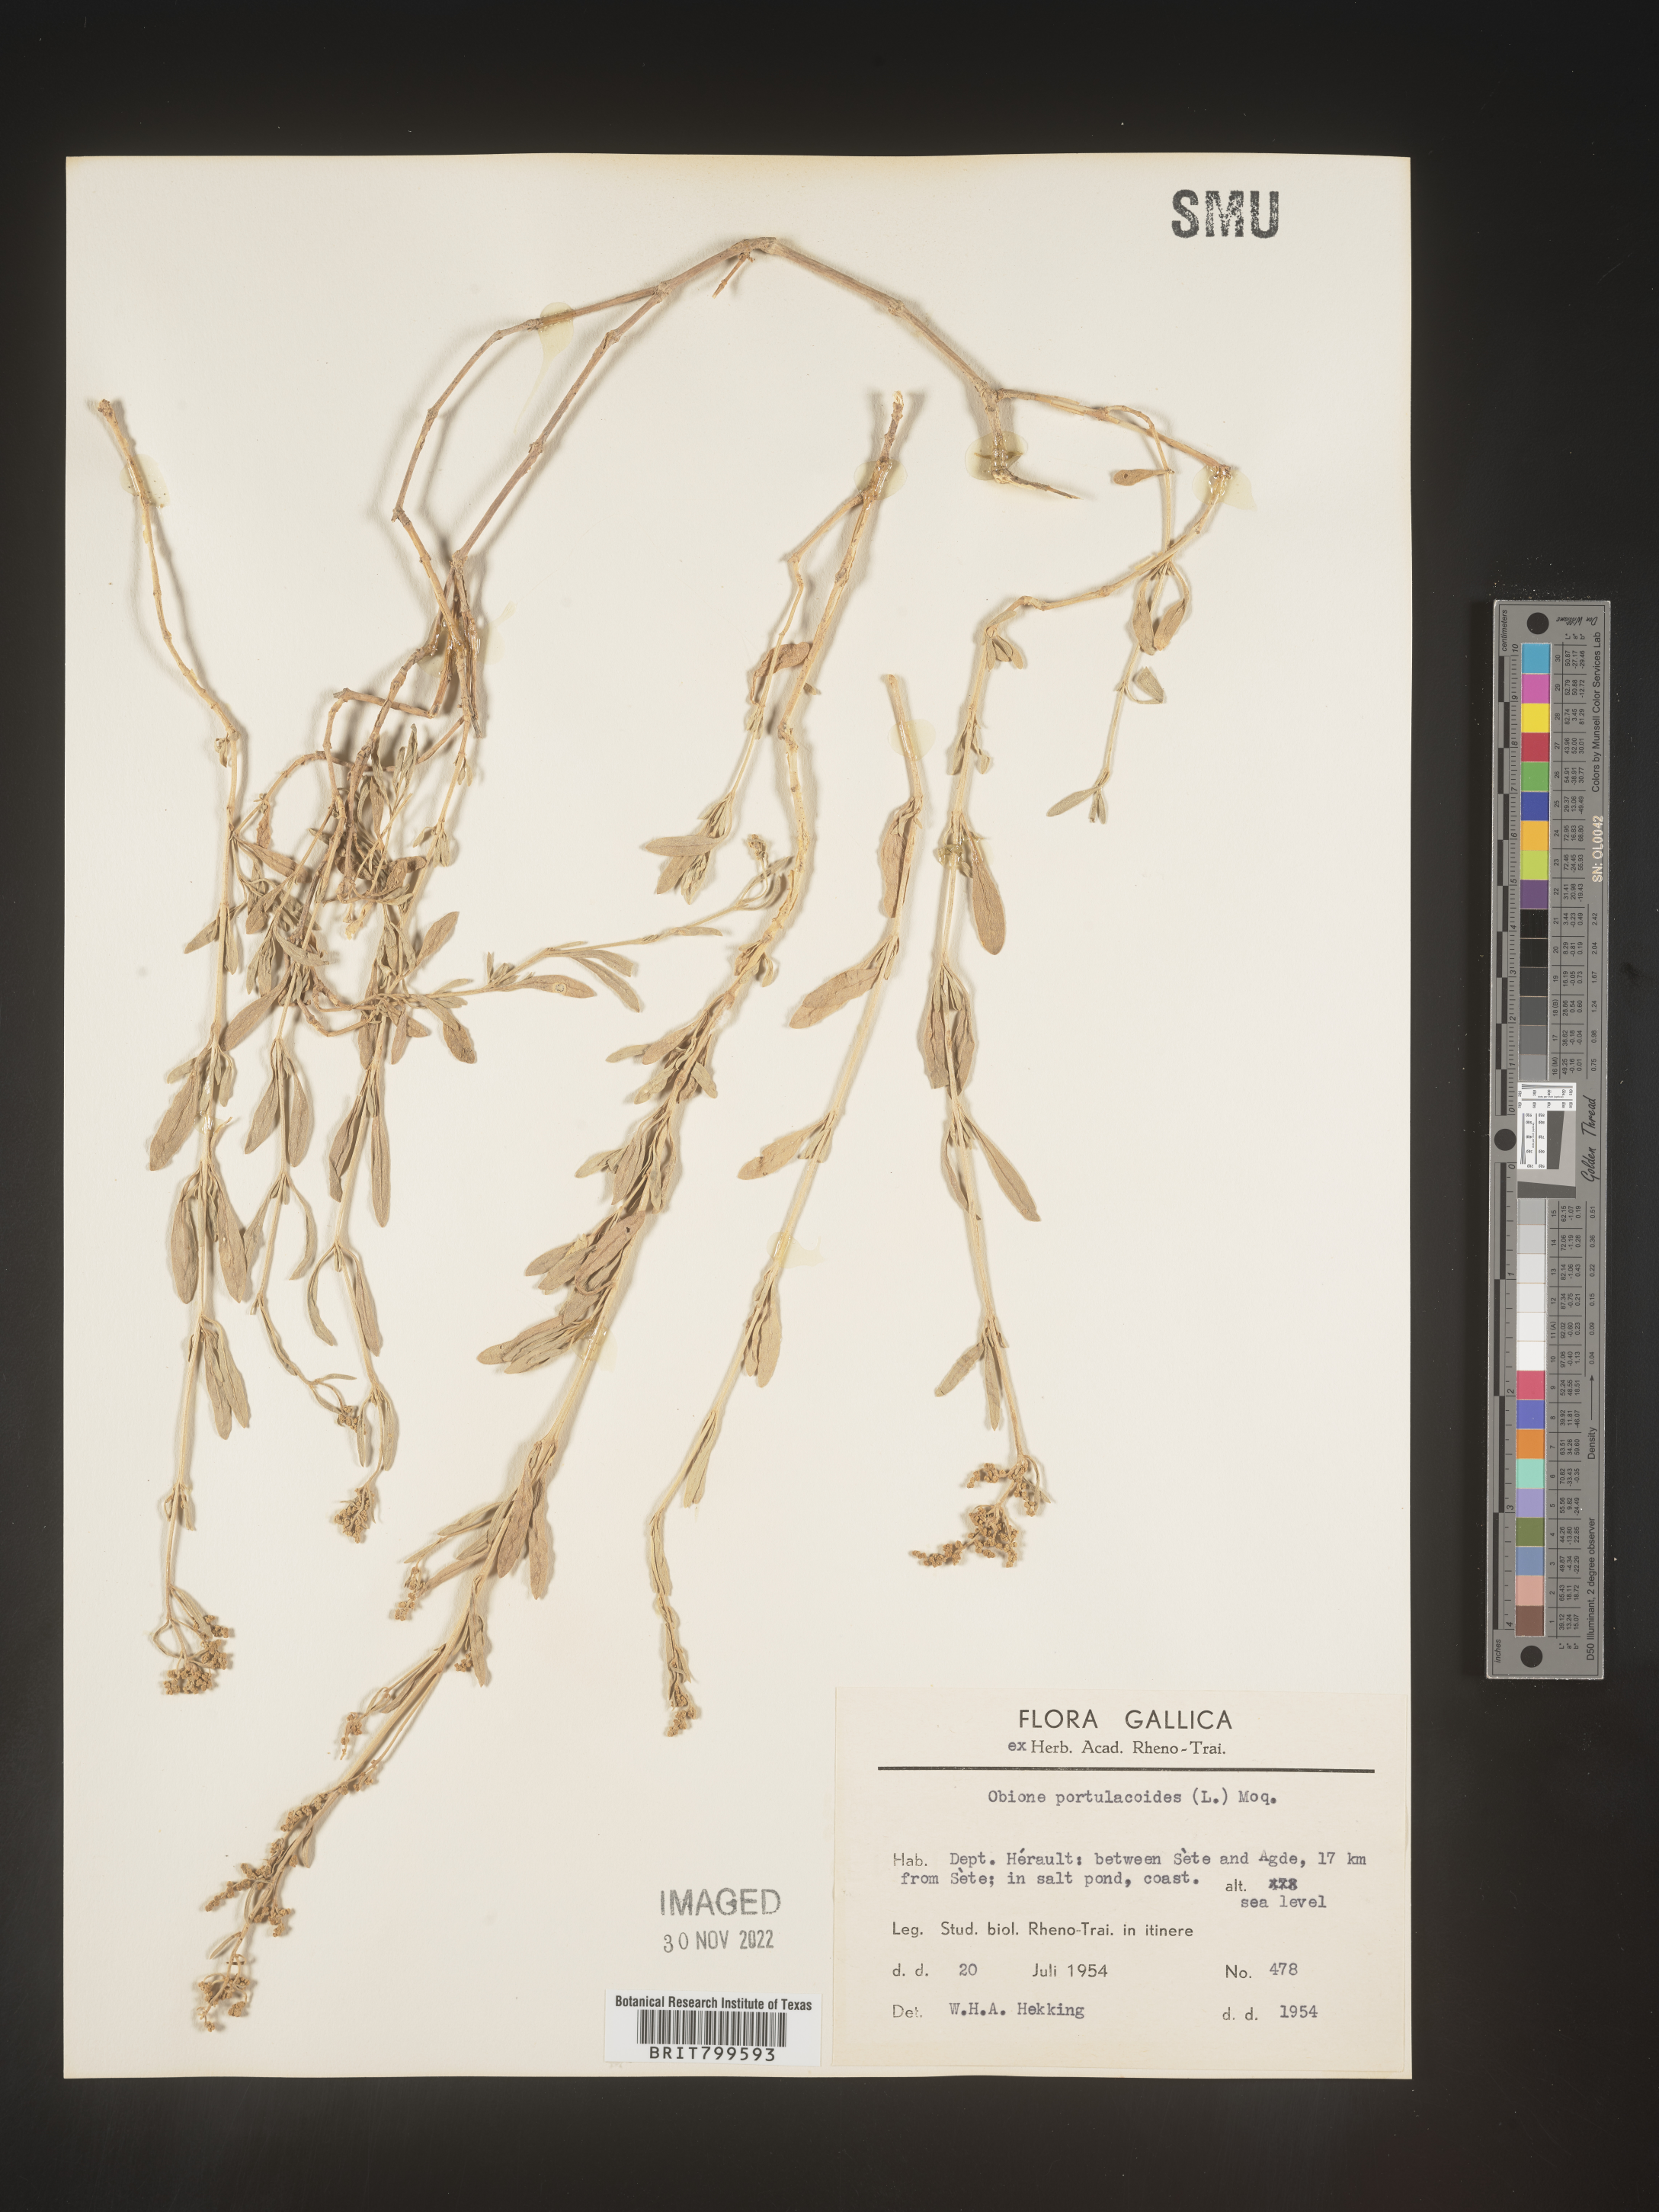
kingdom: Plantae
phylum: Tracheophyta
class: Magnoliopsida
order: Caryophyllales
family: Amaranthaceae
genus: Atriplex
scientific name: Atriplex Obione parvifolia
